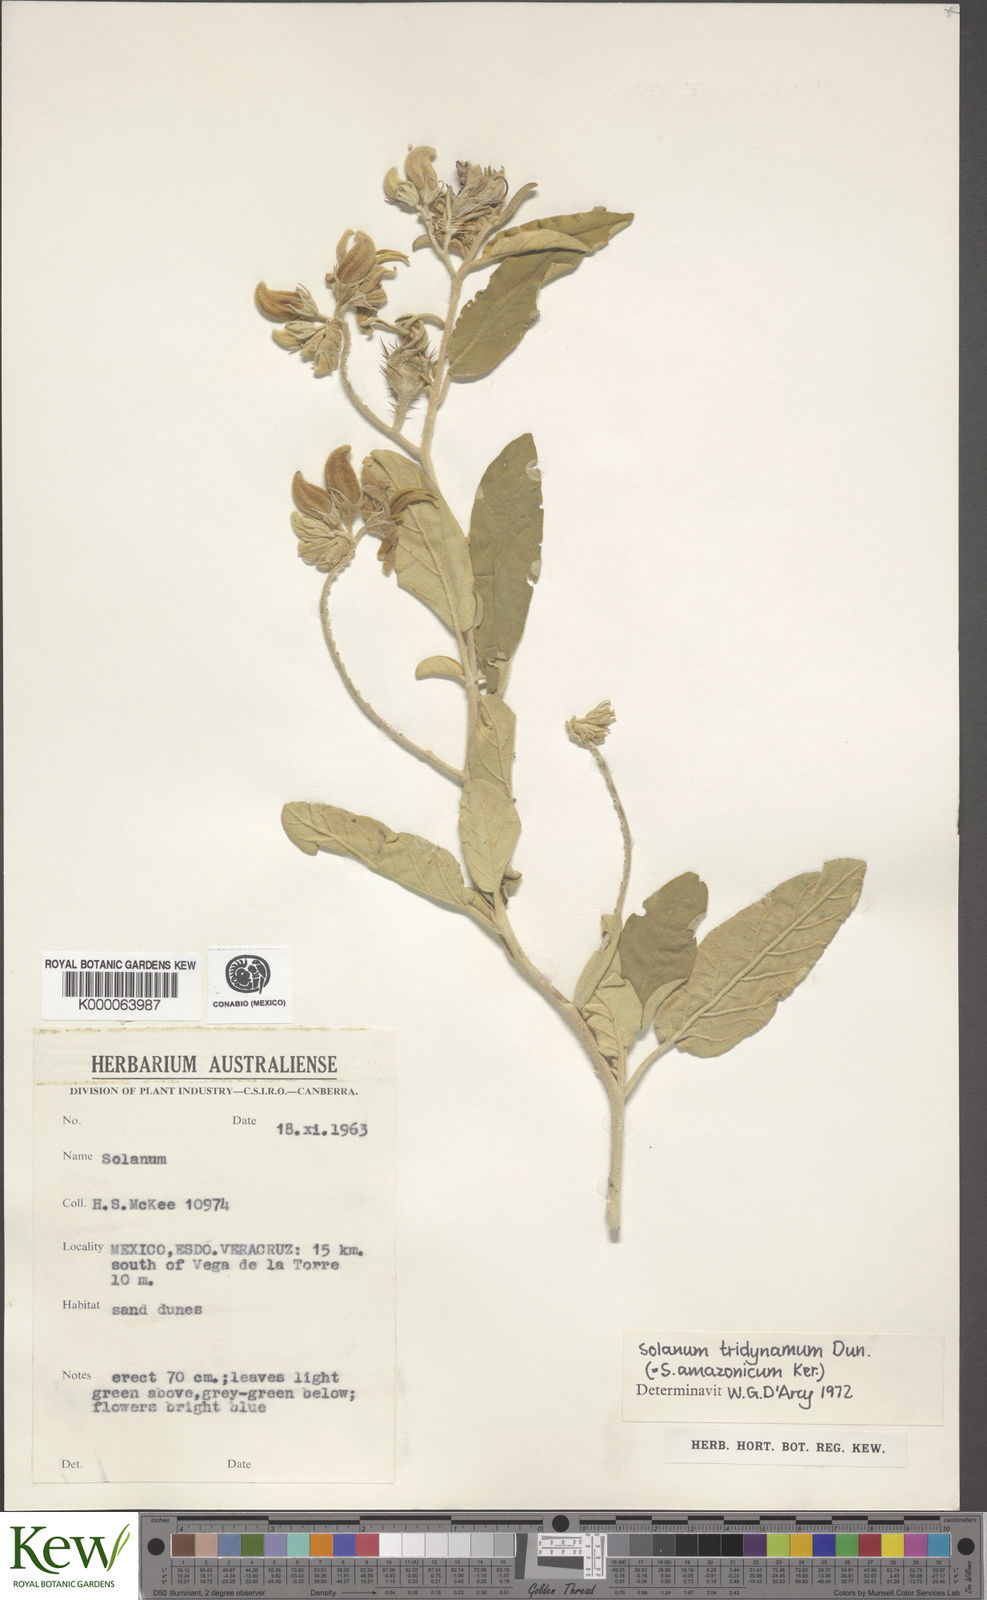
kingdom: Plantae
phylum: Tracheophyta
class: Magnoliopsida
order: Solanales
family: Solanaceae
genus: Solanum
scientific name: Solanum houstonii
